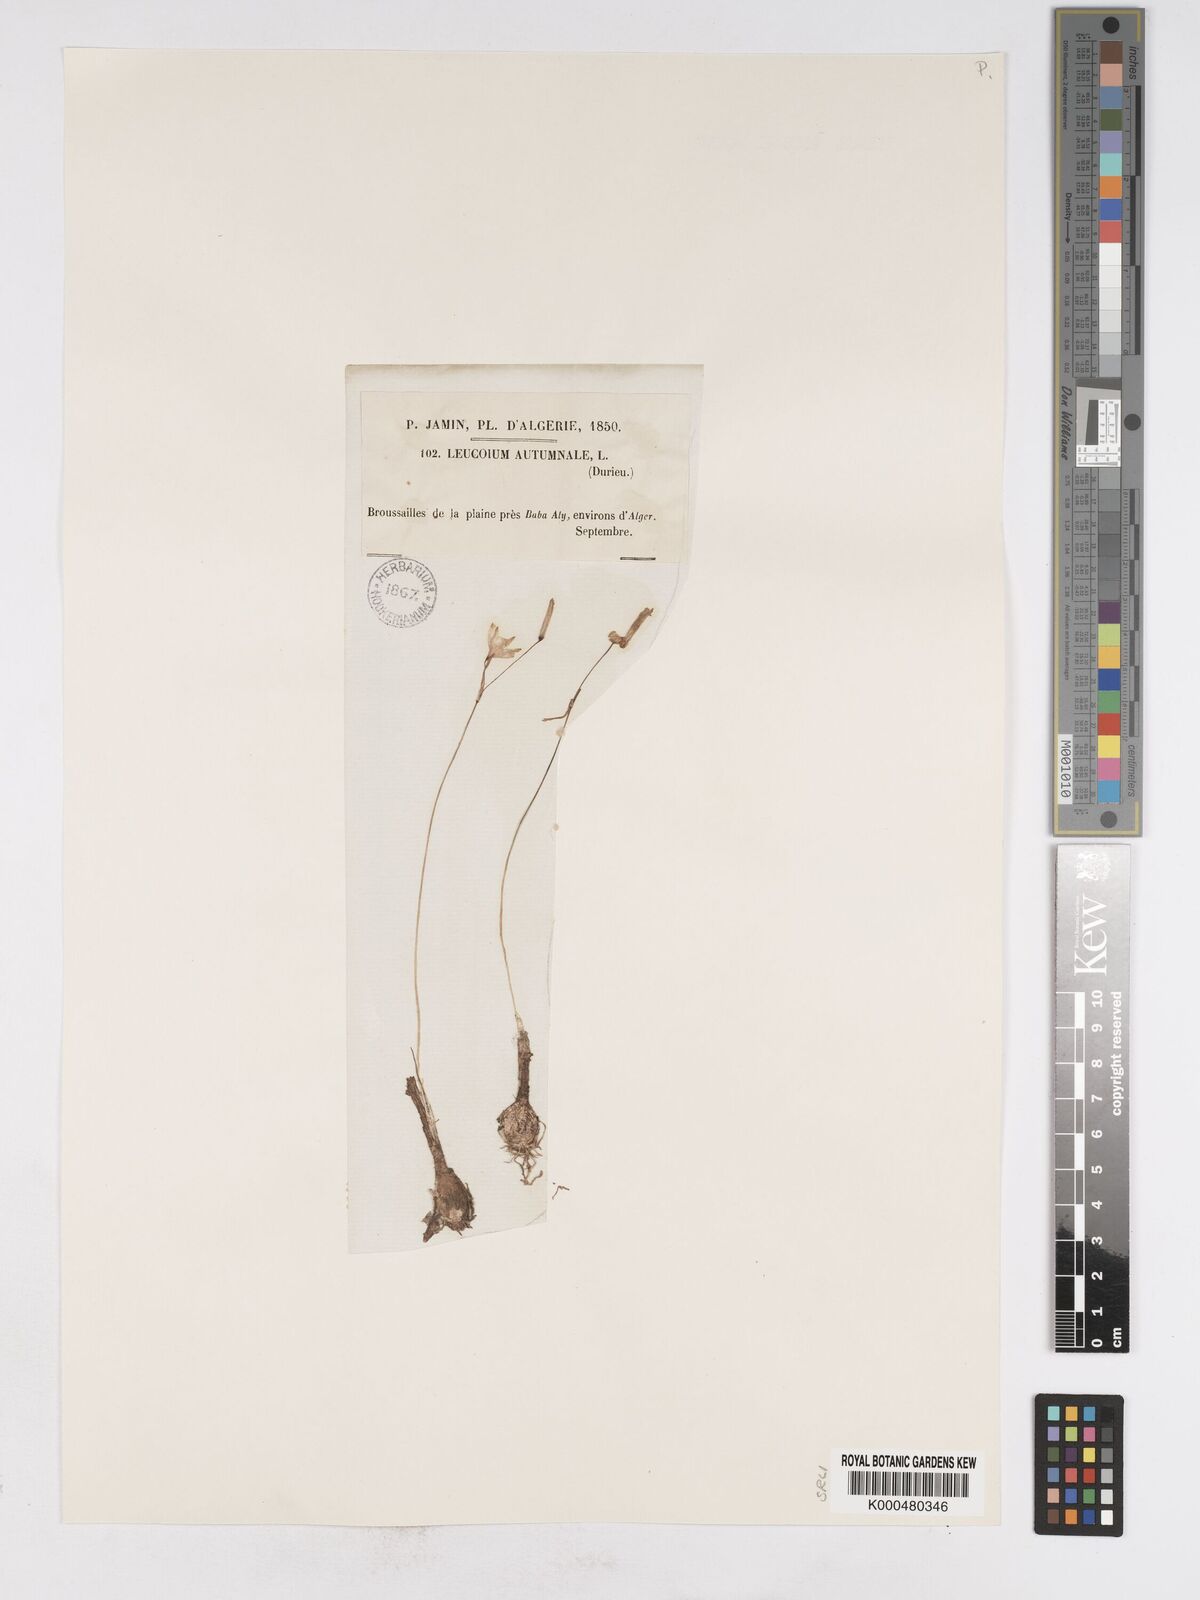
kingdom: Plantae
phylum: Tracheophyta
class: Liliopsida
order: Asparagales
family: Amaryllidaceae
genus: Acis
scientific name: Acis autumnalis
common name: Autumn snowflake
